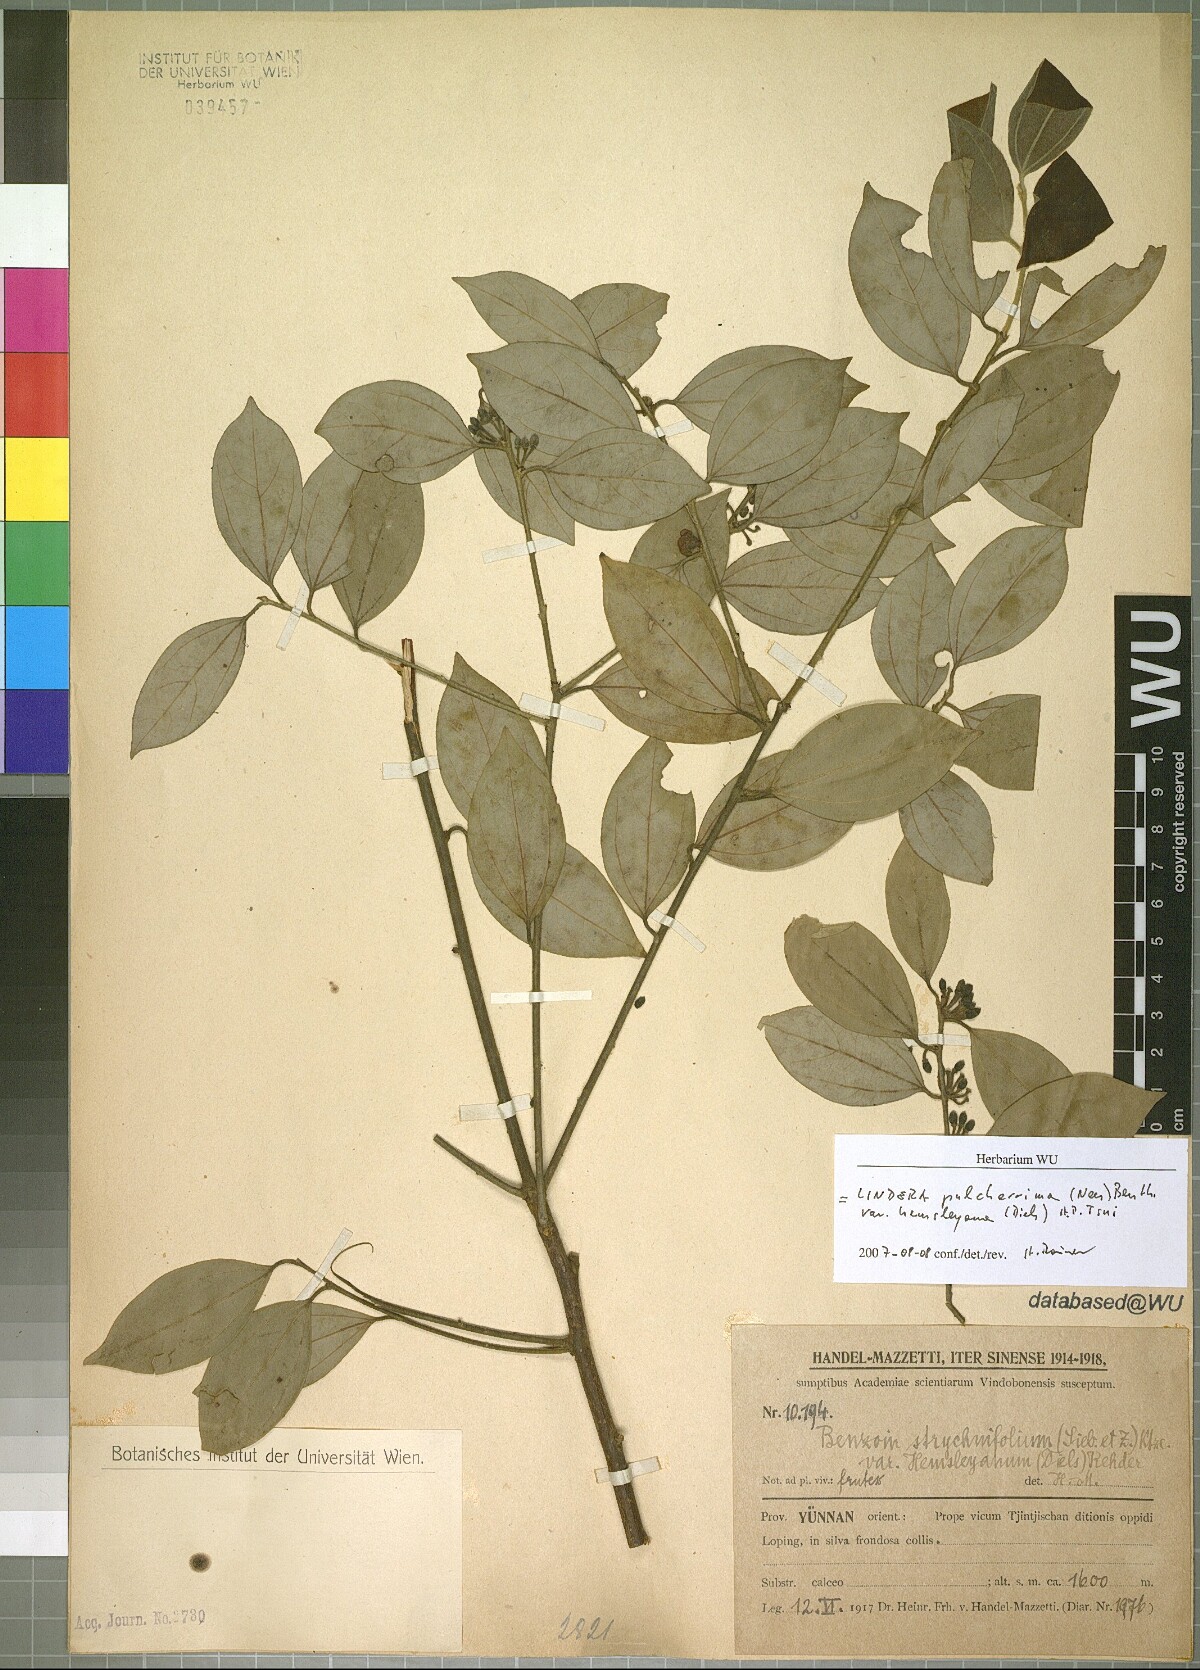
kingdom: Plantae
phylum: Tracheophyta
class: Magnoliopsida
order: Laurales
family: Lauraceae
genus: Lindera
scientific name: Lindera pulcherrima
